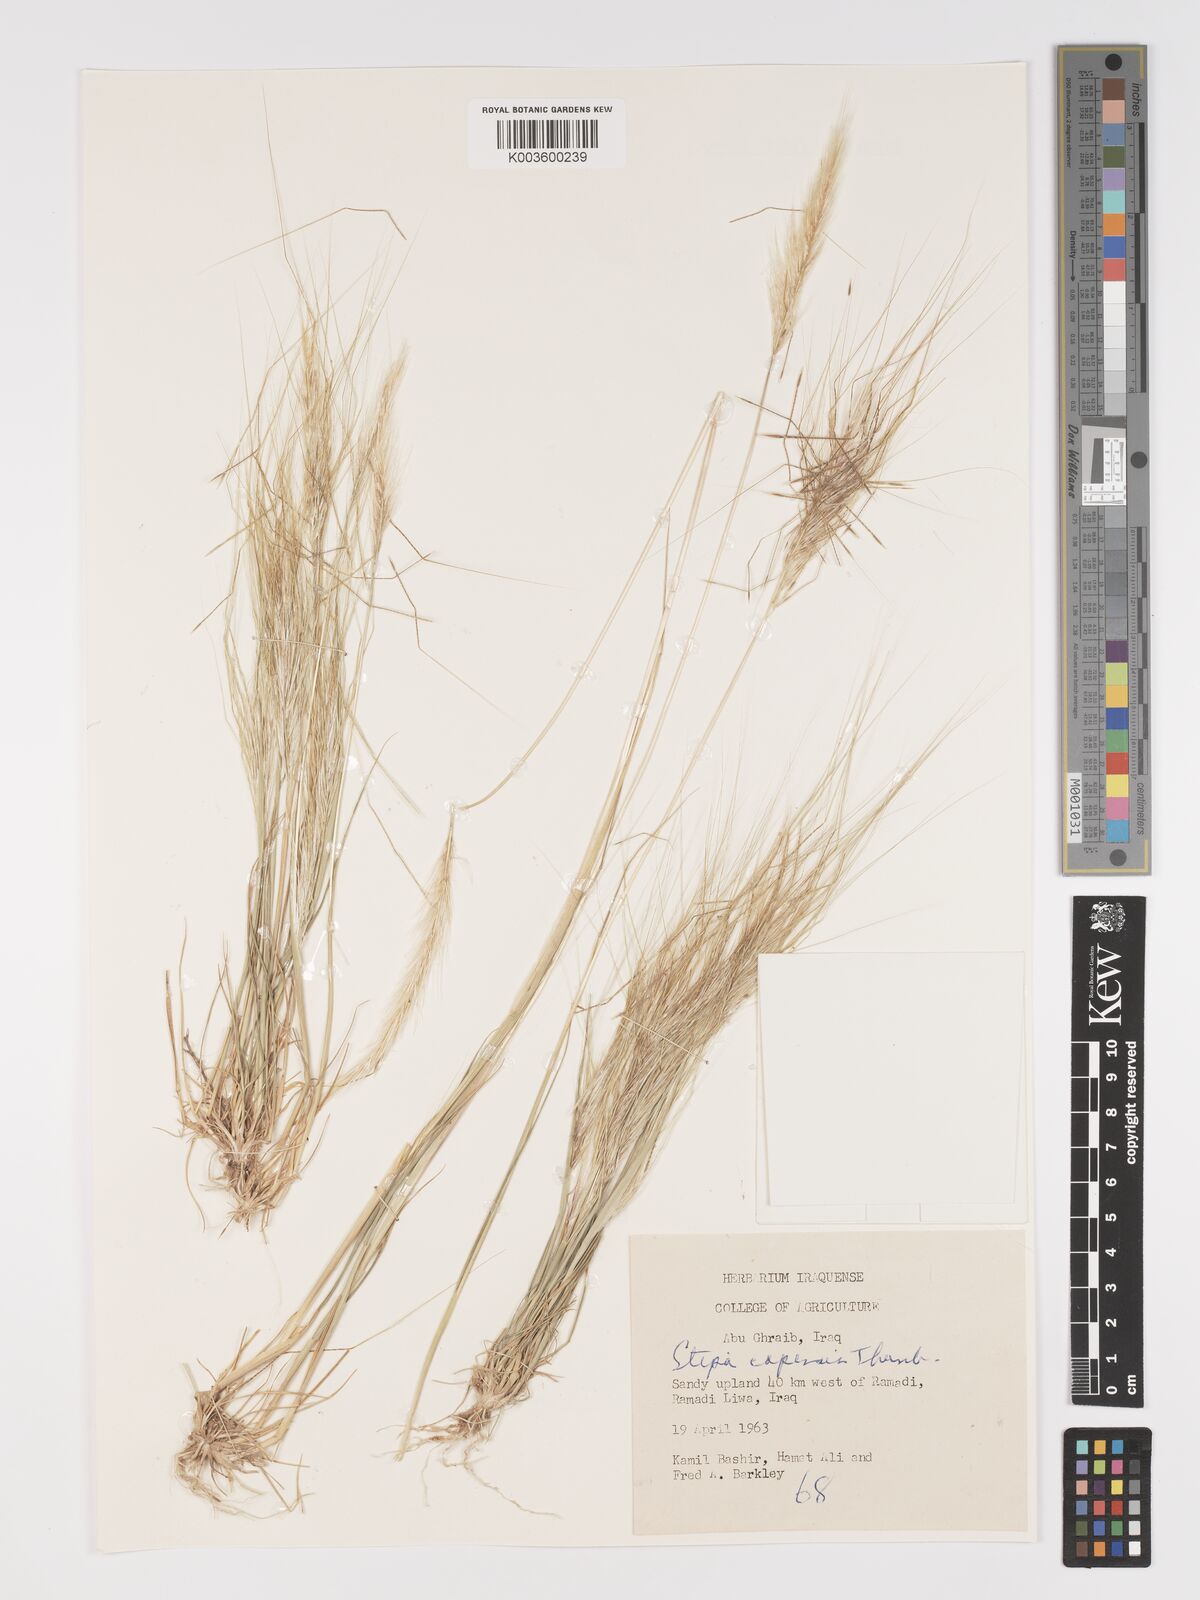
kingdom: Plantae
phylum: Tracheophyta
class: Liliopsida
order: Poales
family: Poaceae
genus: Stipellula
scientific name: Stipellula capensis
